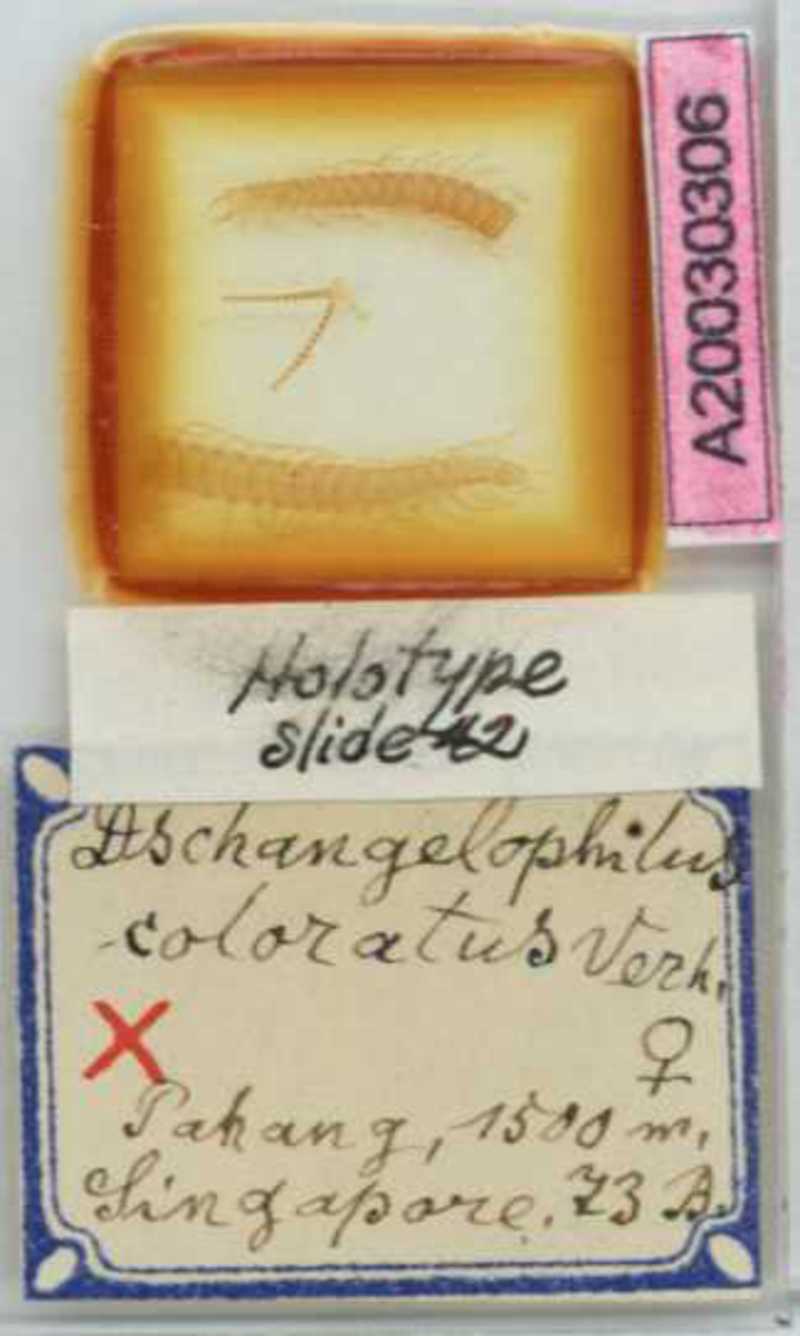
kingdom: Animalia
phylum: Arthropoda
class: Chilopoda
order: Geophilomorpha
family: Gonibregmatidae
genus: Himantosoma
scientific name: Himantosoma typicum
